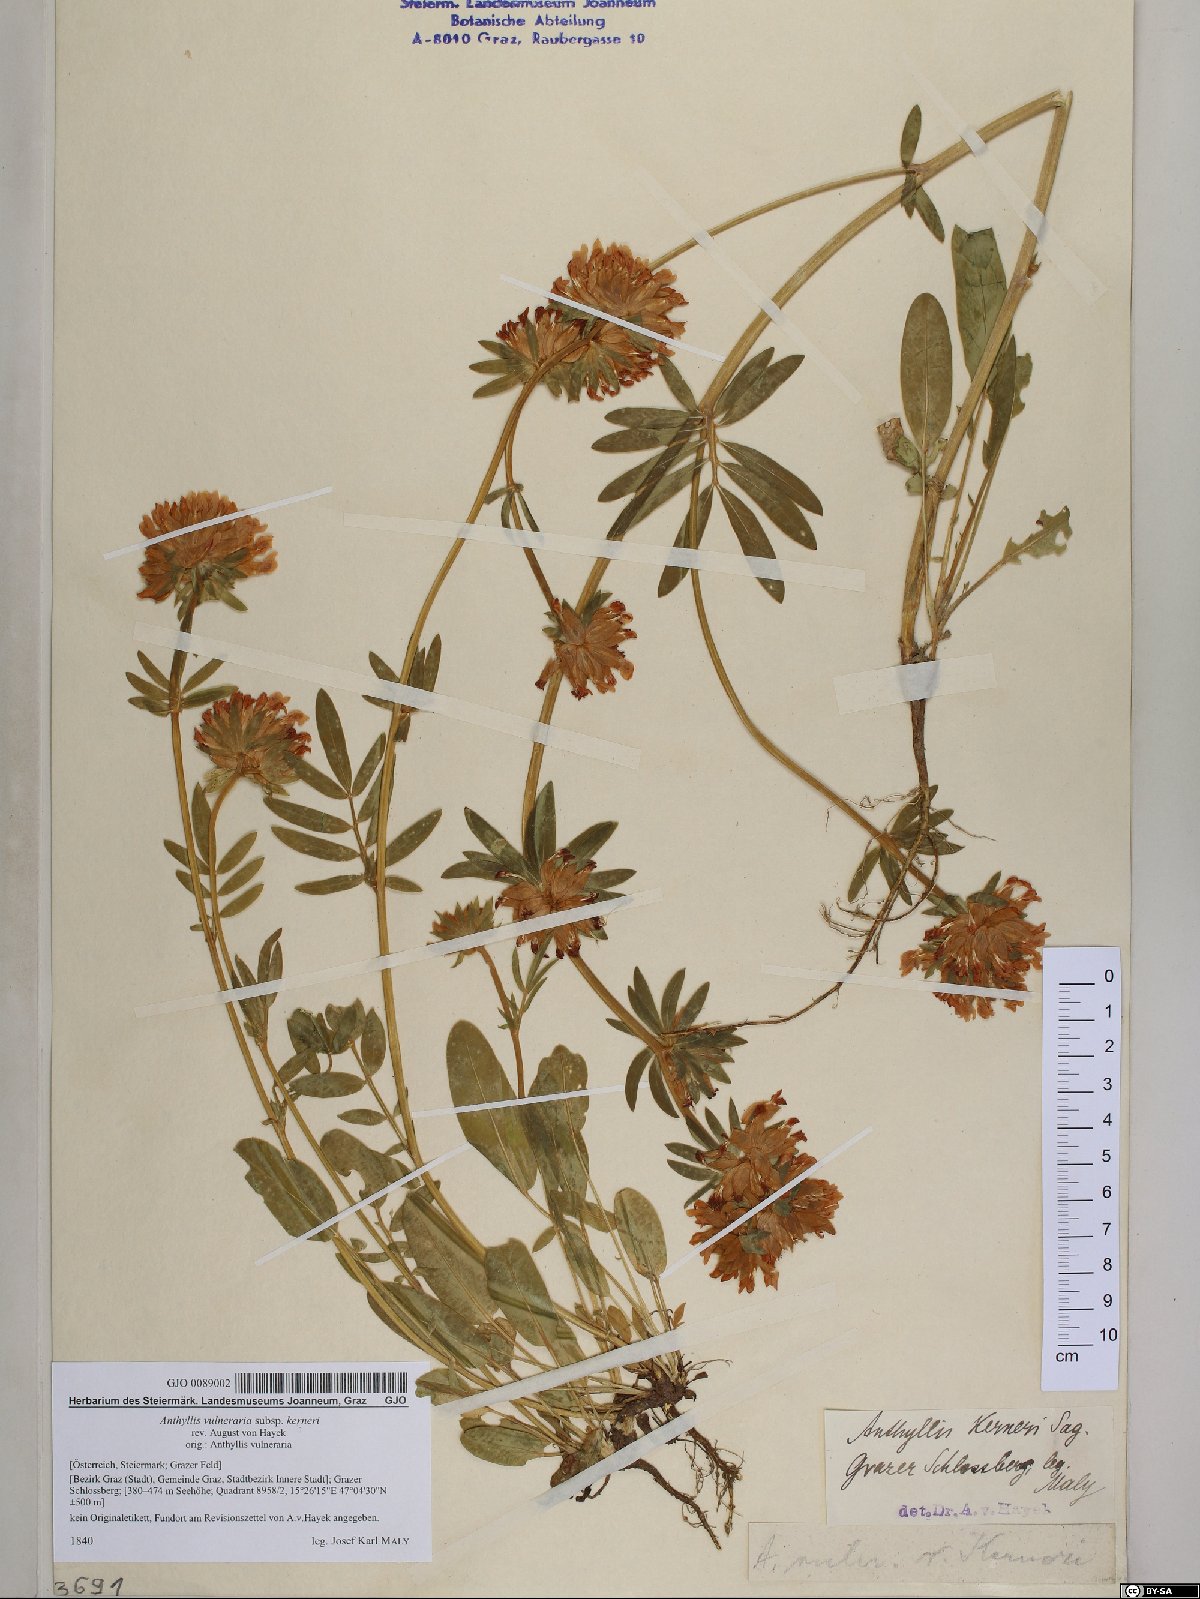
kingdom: Plantae
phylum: Tracheophyta
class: Magnoliopsida
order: Fabales
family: Fabaceae
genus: Anthyllis
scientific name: Anthyllis vulneraria
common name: Kidney vetch
